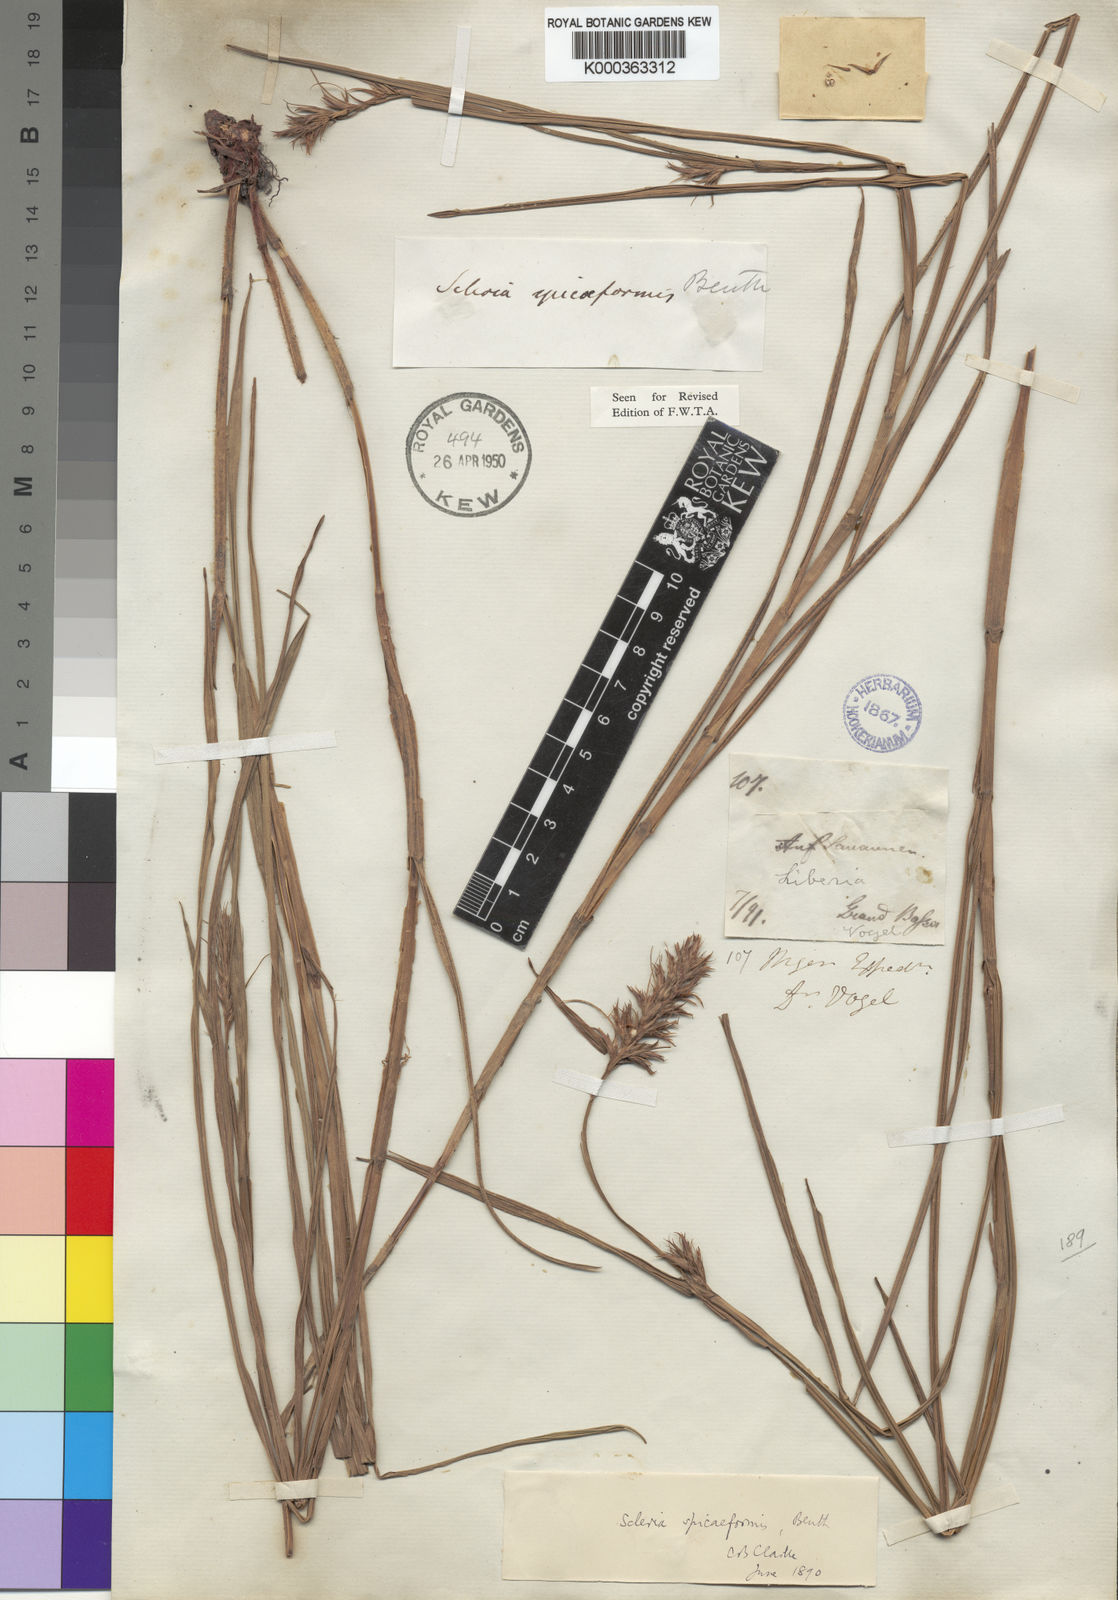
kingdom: Plantae
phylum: Tracheophyta
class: Liliopsida
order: Poales
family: Cyperaceae
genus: Scleria
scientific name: Scleria spiciformis
